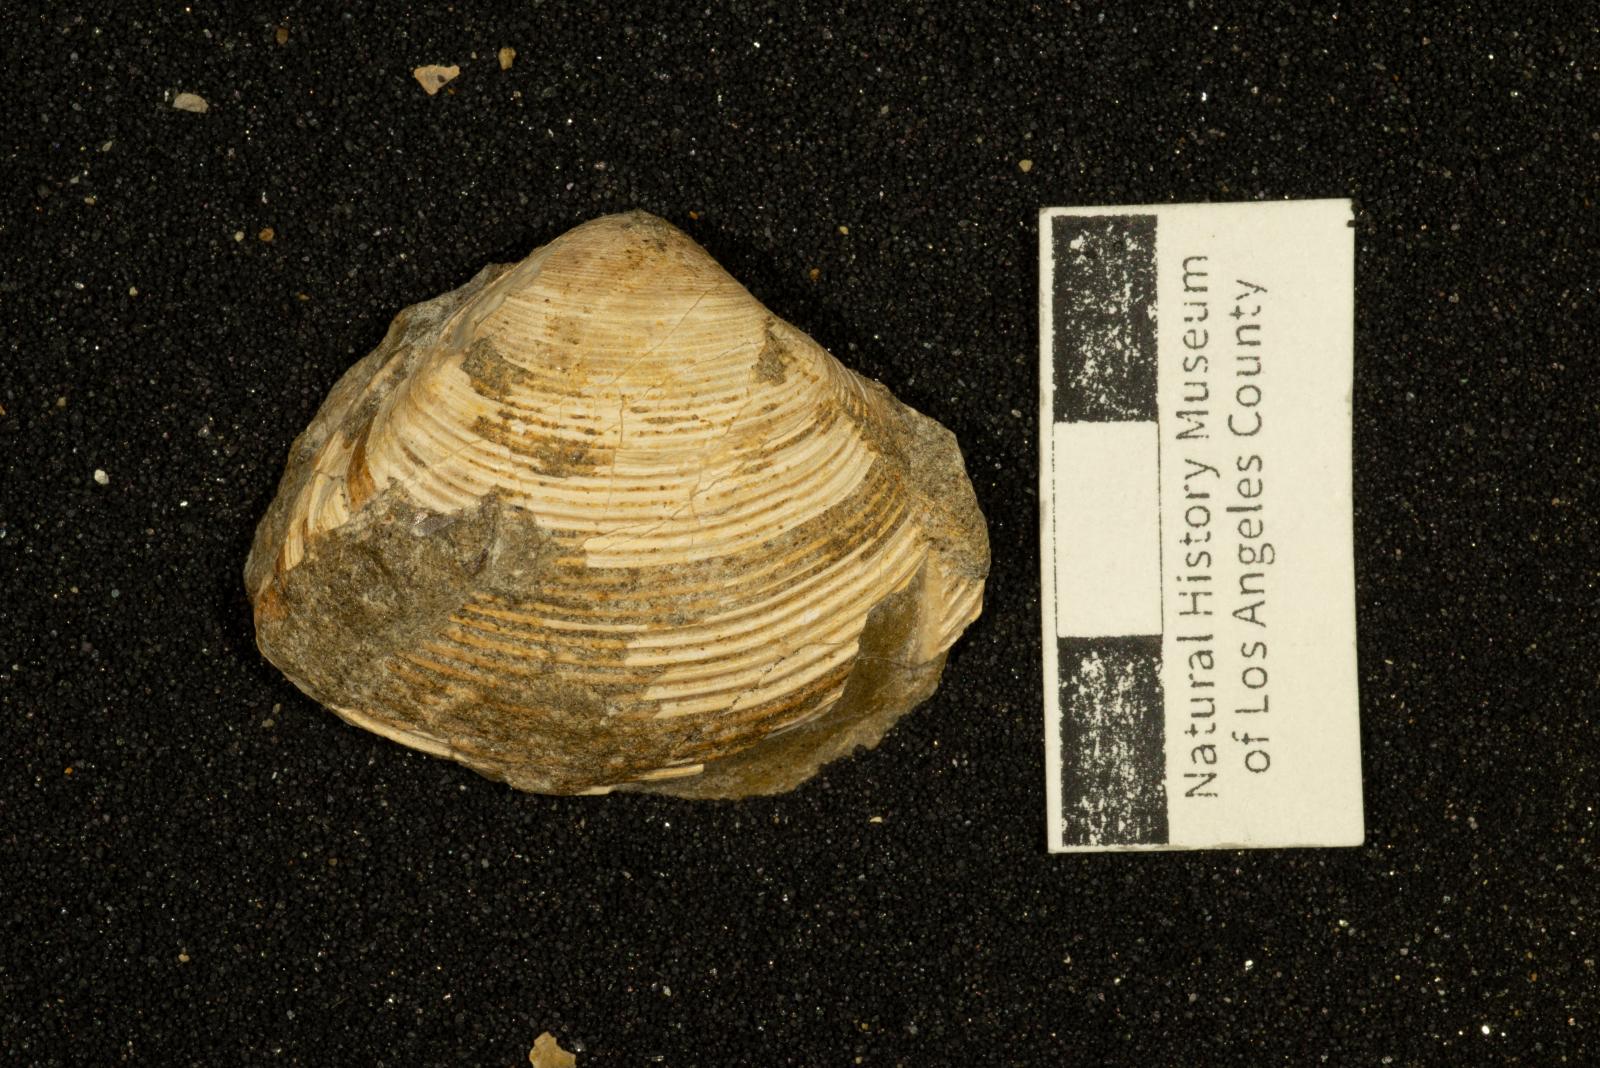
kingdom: Animalia
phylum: Mollusca
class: Bivalvia
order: Venerida
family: Mactridae
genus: Cymbophora
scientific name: Cymbophora popenoei
